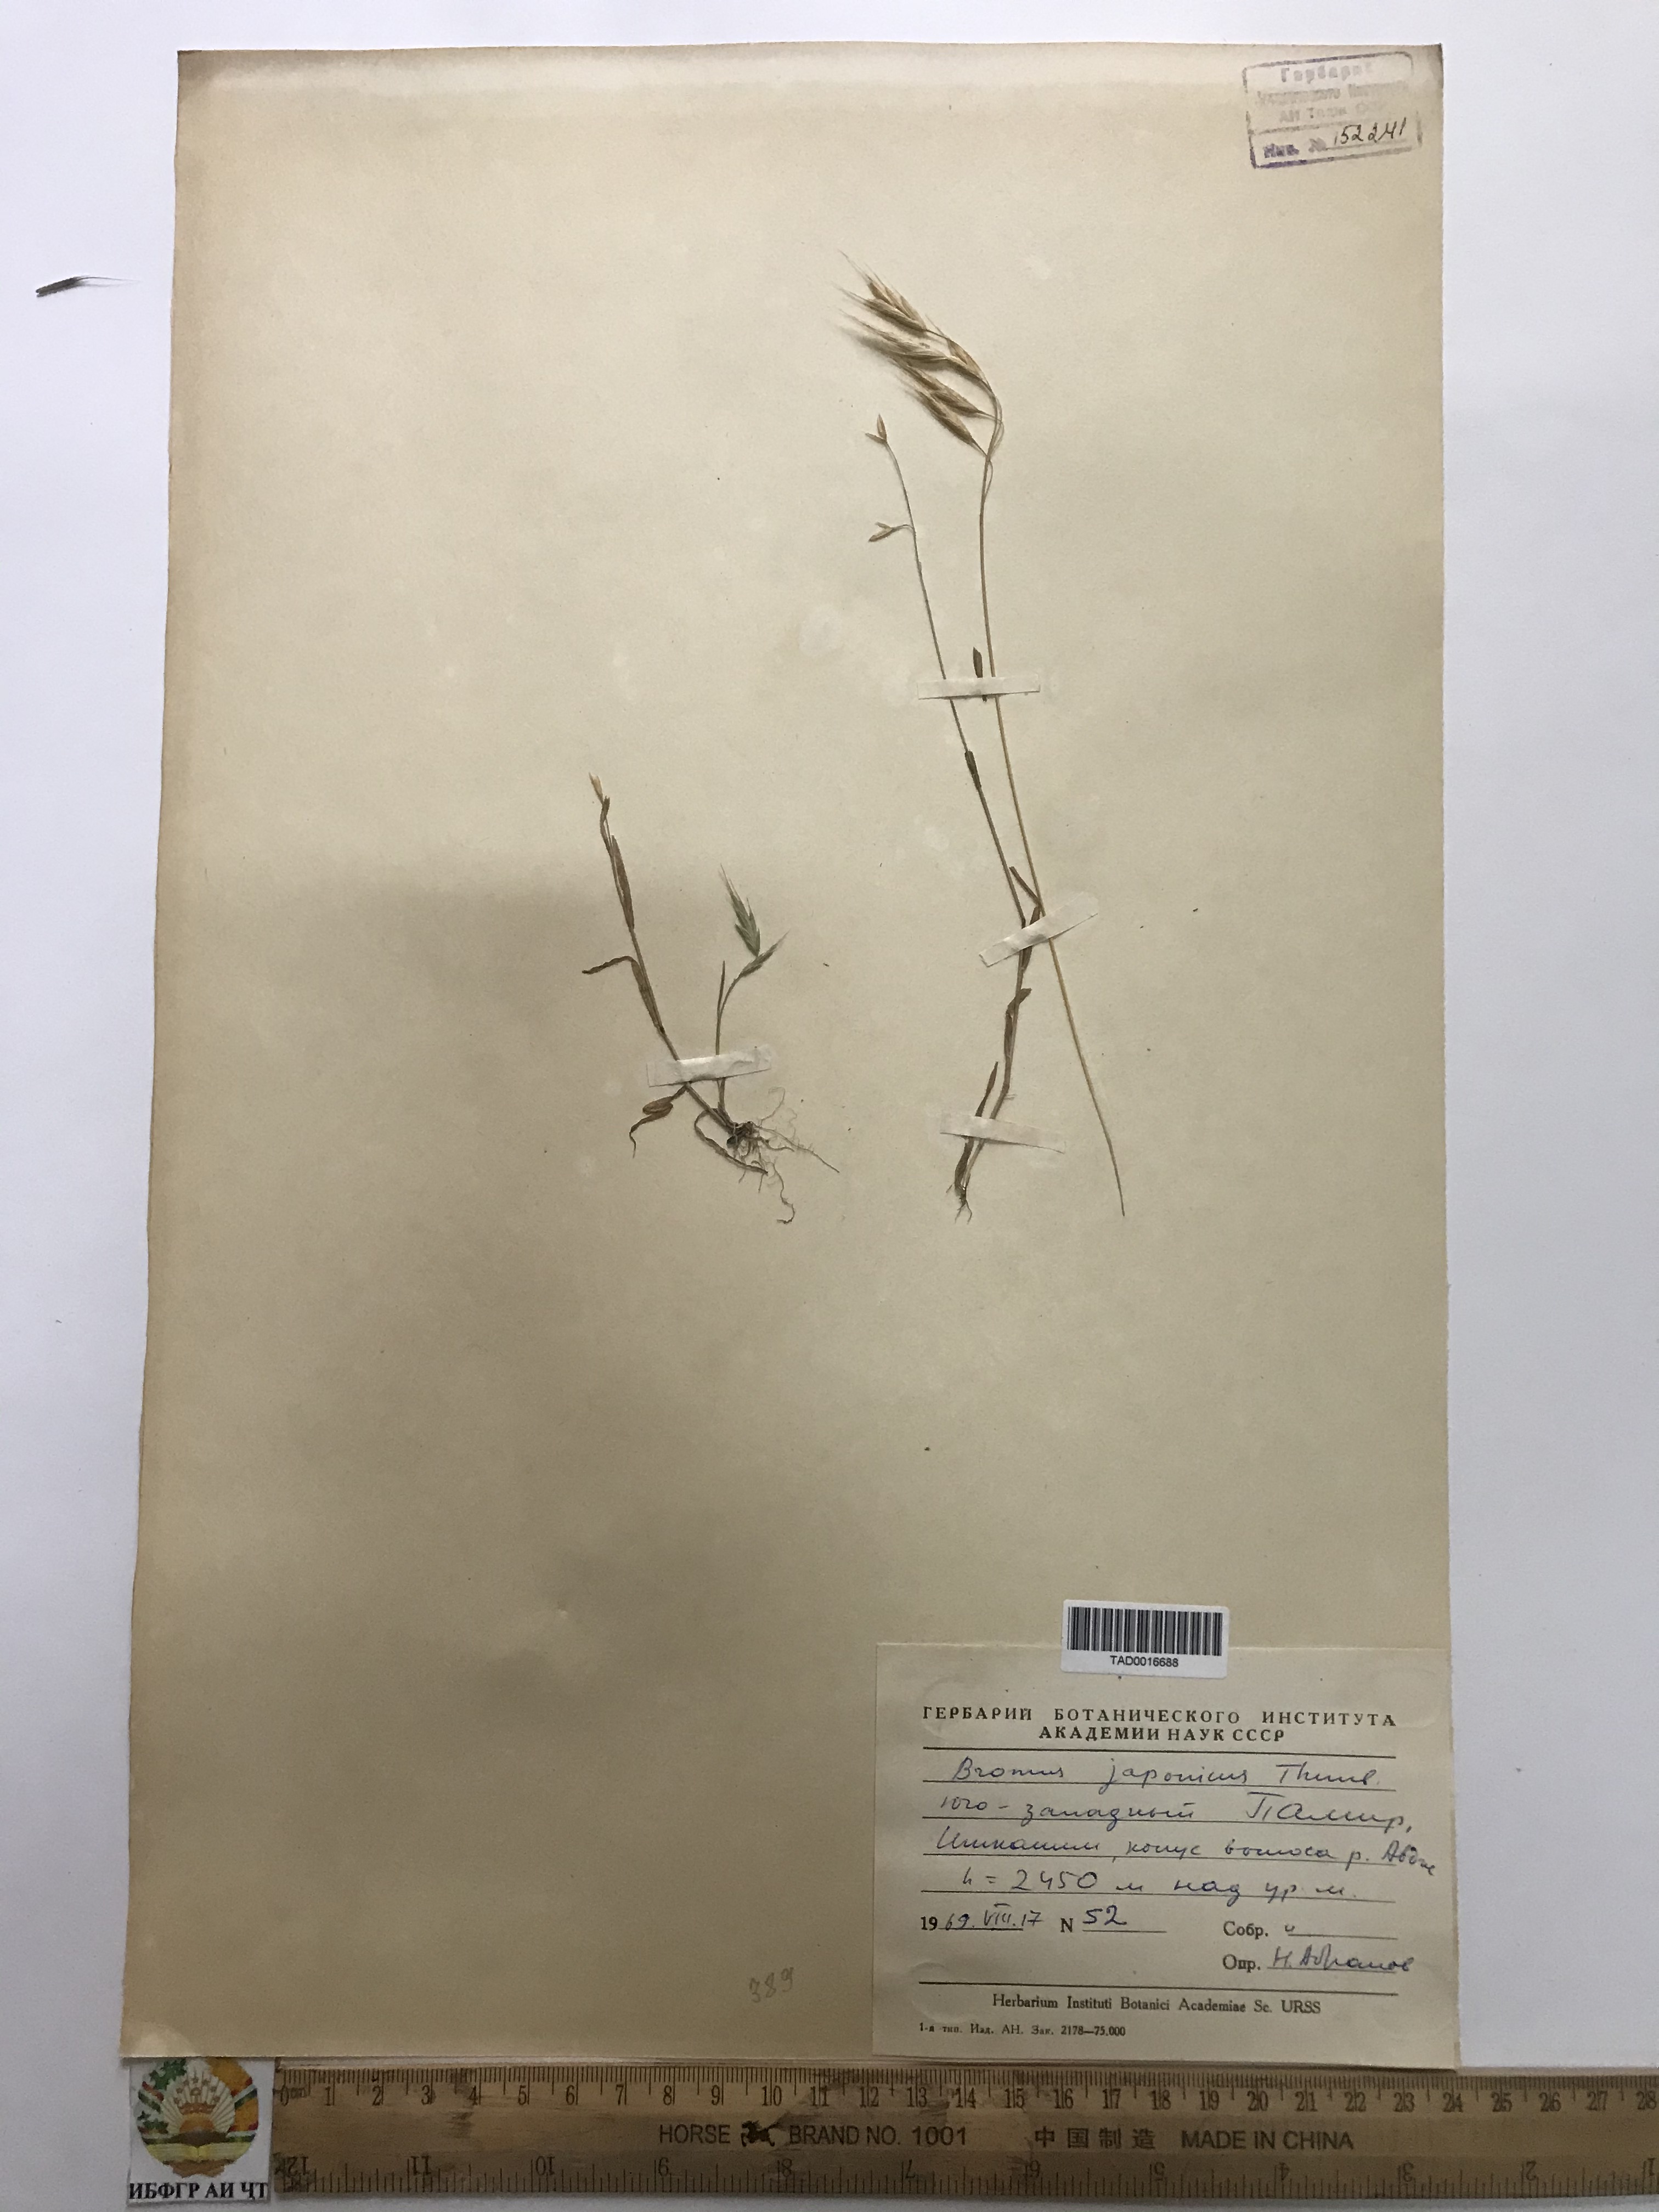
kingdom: Plantae
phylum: Tracheophyta
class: Liliopsida
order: Poales
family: Poaceae
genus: Bromus
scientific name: Bromus japonicus
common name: Japanese brome
